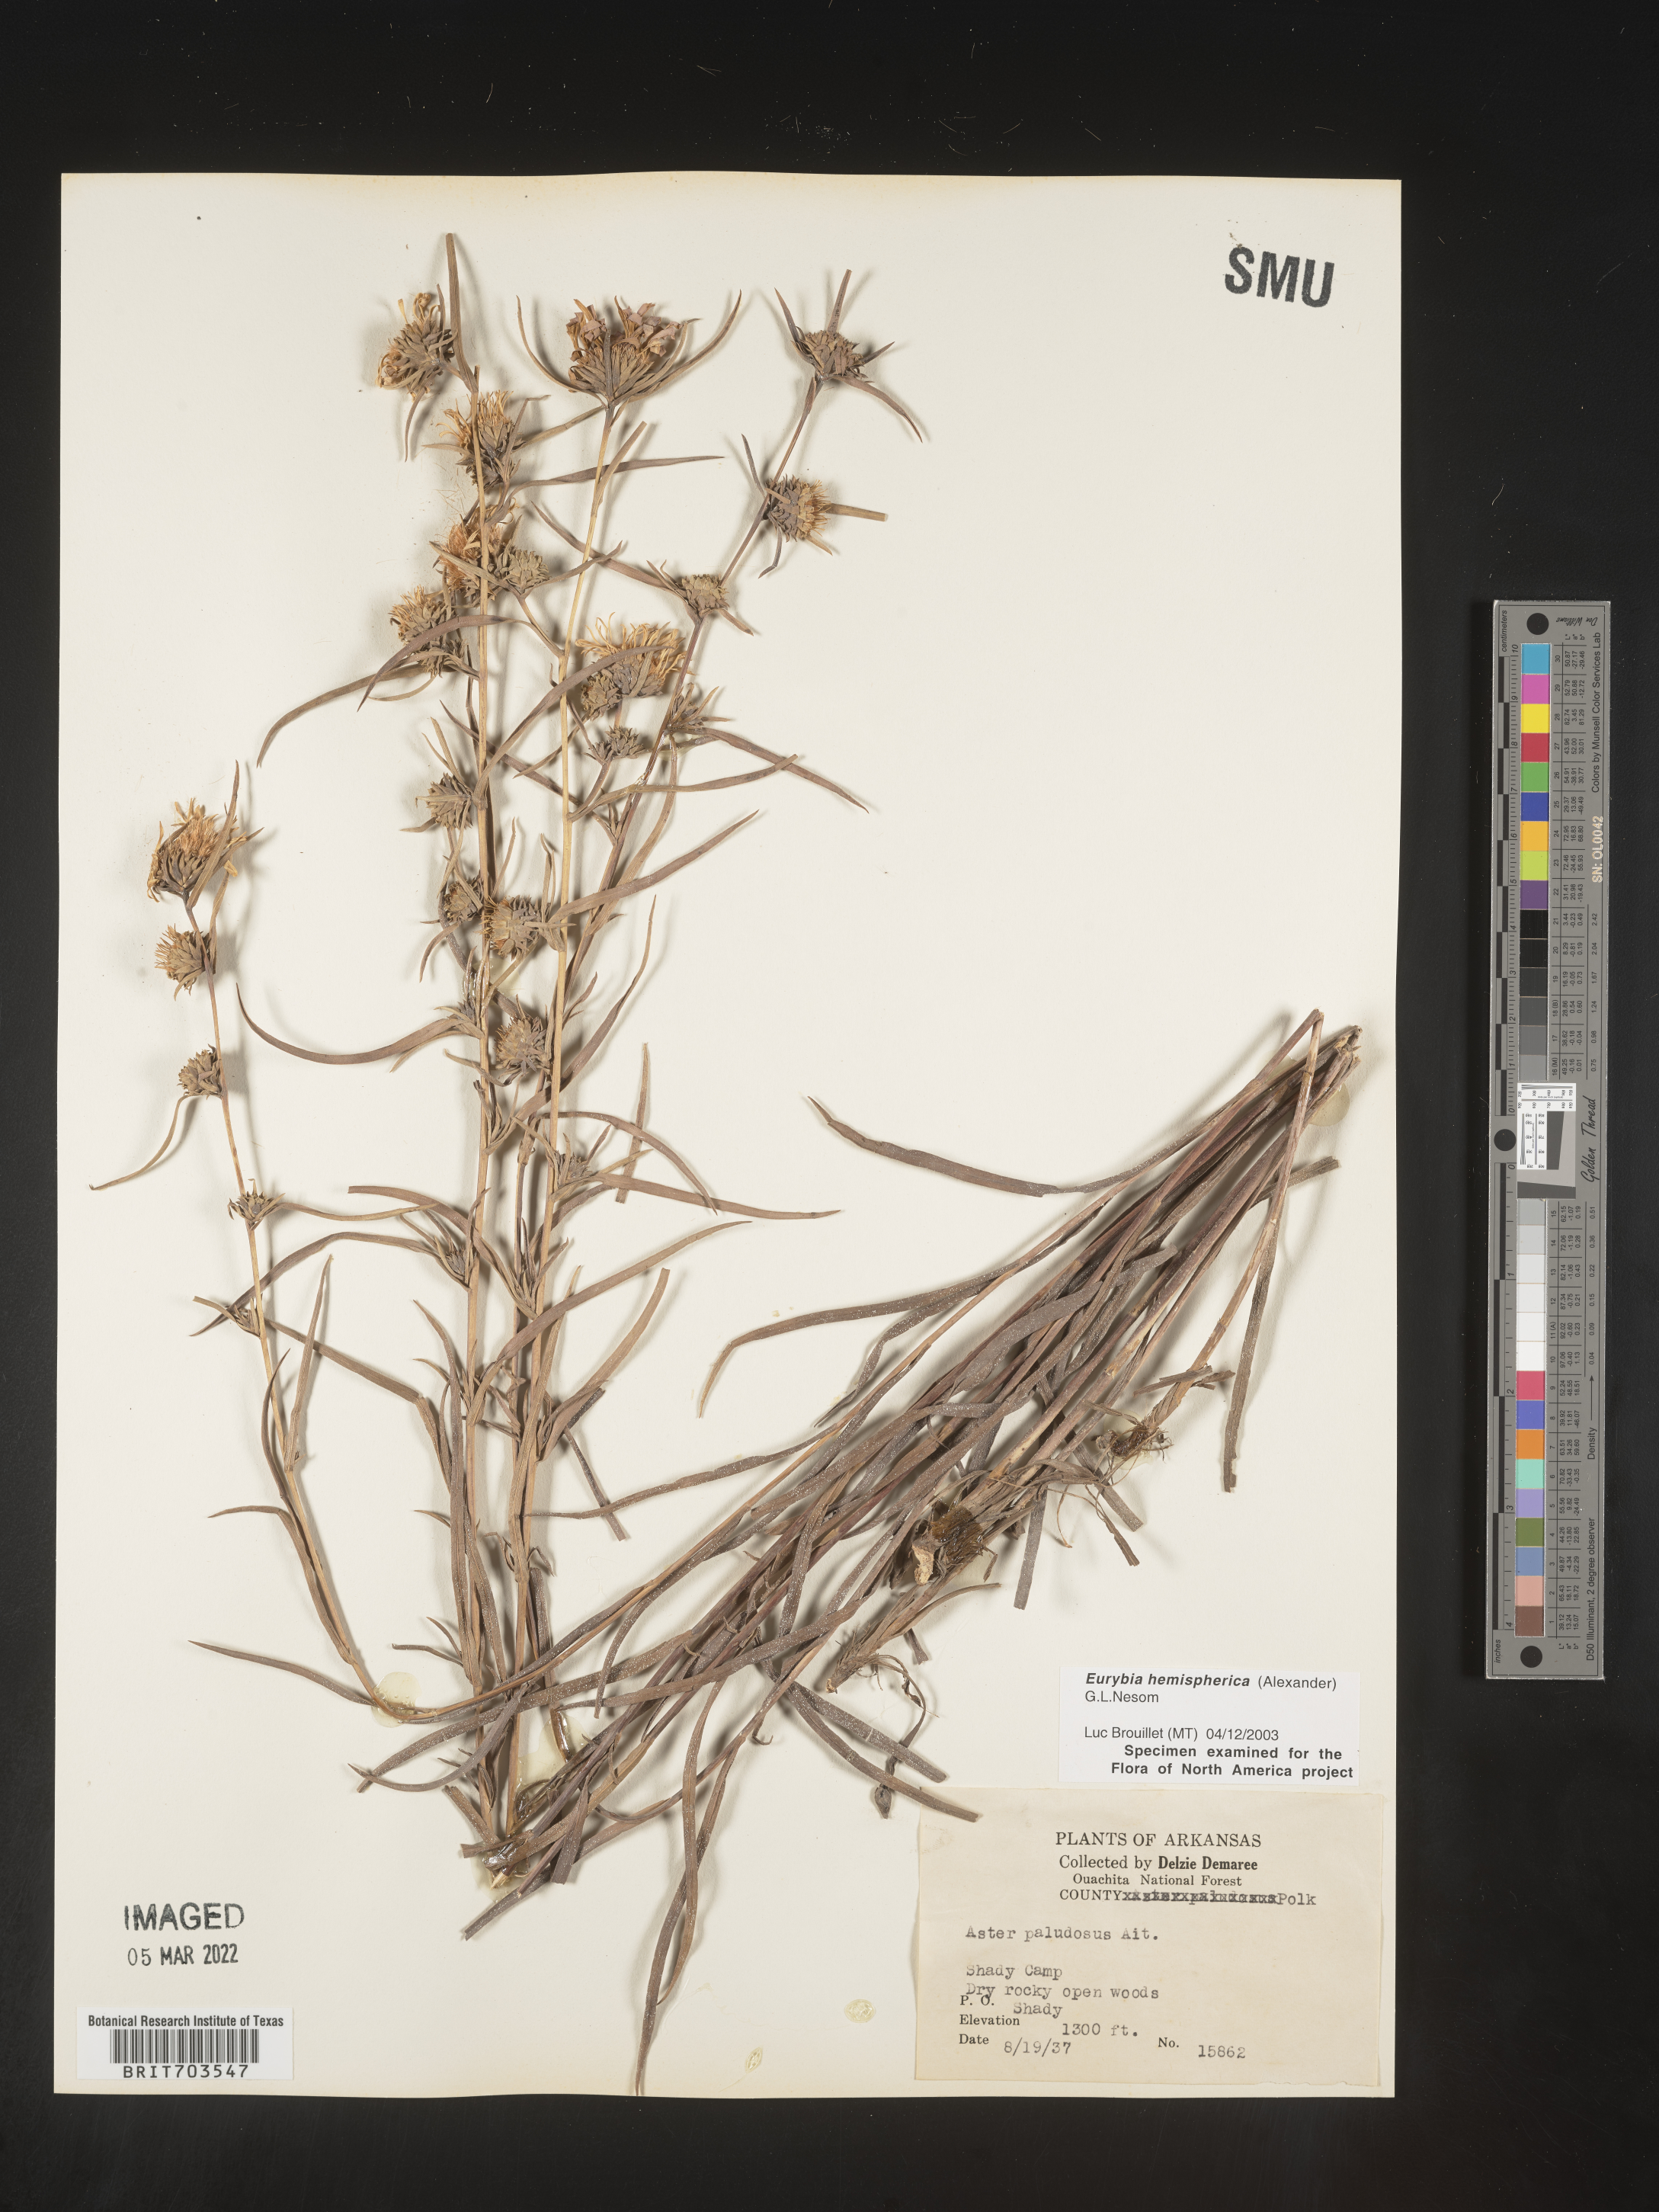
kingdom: Plantae
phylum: Tracheophyta
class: Magnoliopsida
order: Asterales
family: Asteraceae
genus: Eurybia
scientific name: Eurybia hemispherica
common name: Showy aster
